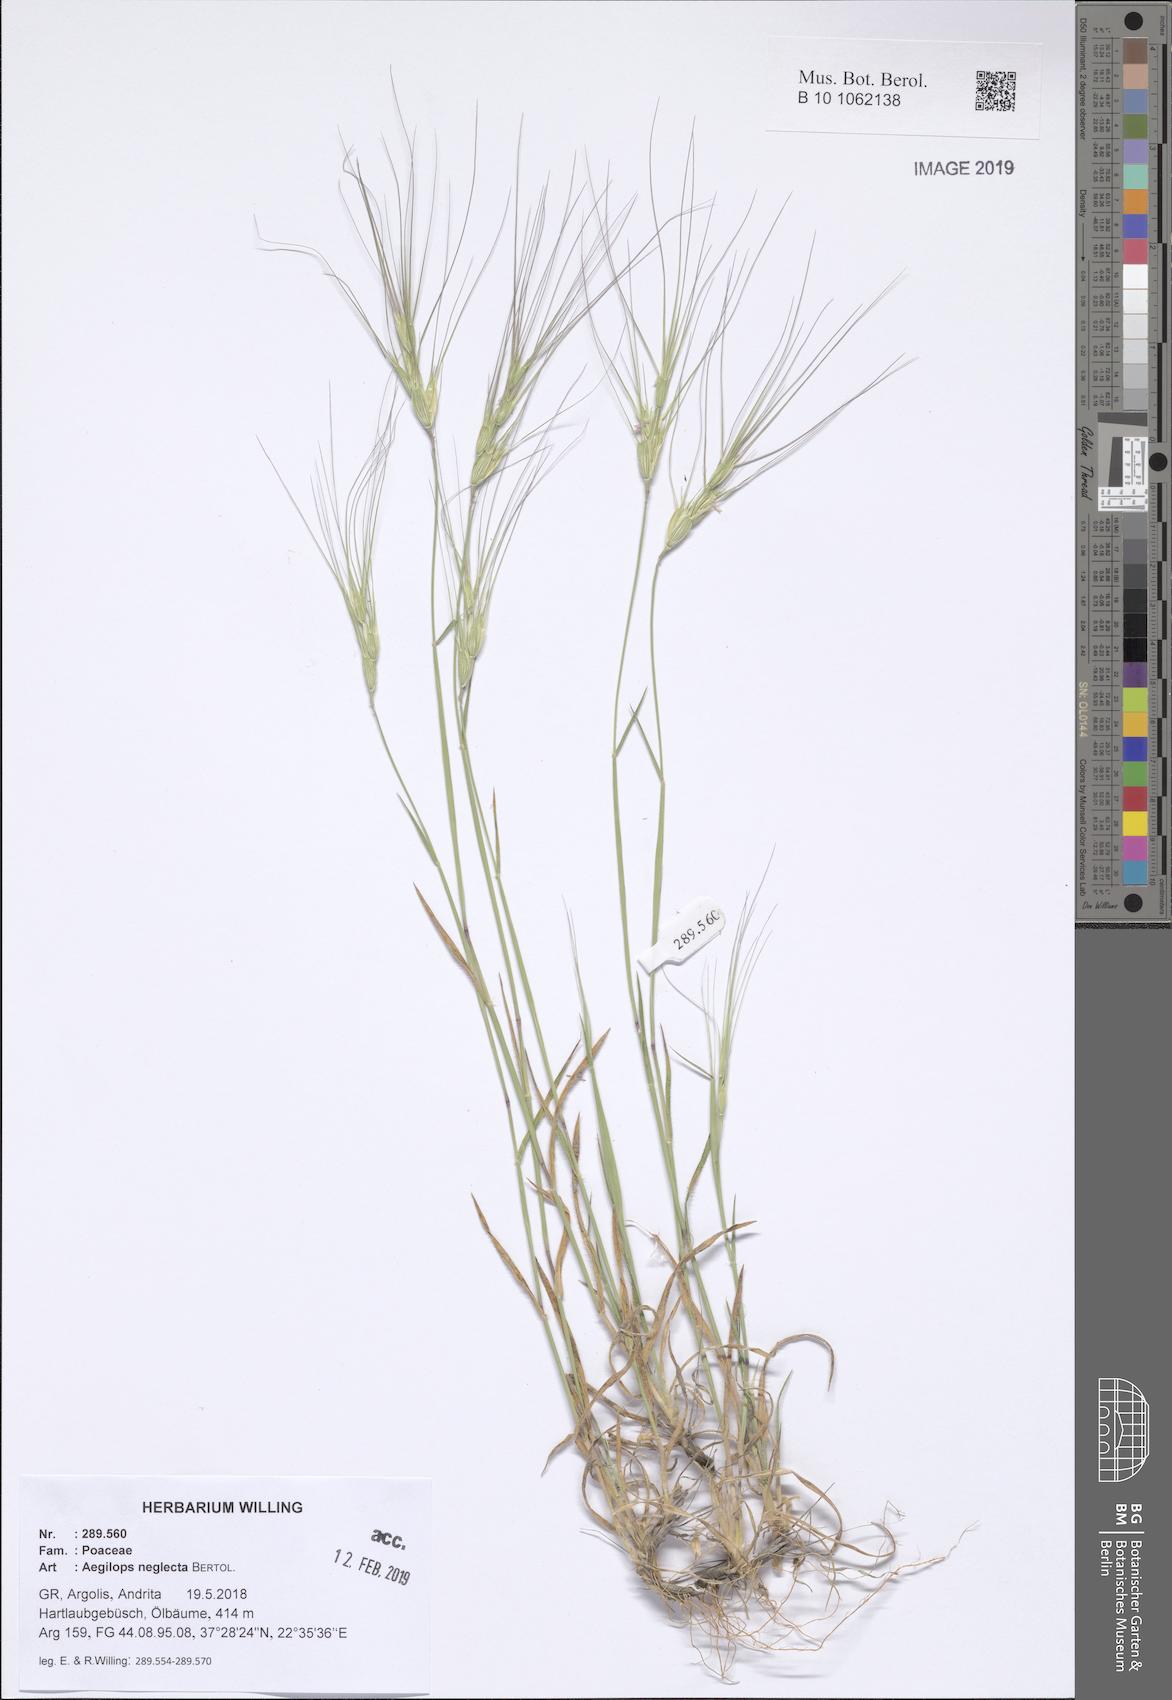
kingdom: Plantae
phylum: Tracheophyta
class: Liliopsida
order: Poales
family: Poaceae
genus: Aegilops
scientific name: Aegilops neglecta
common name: Three-awn goat grass
